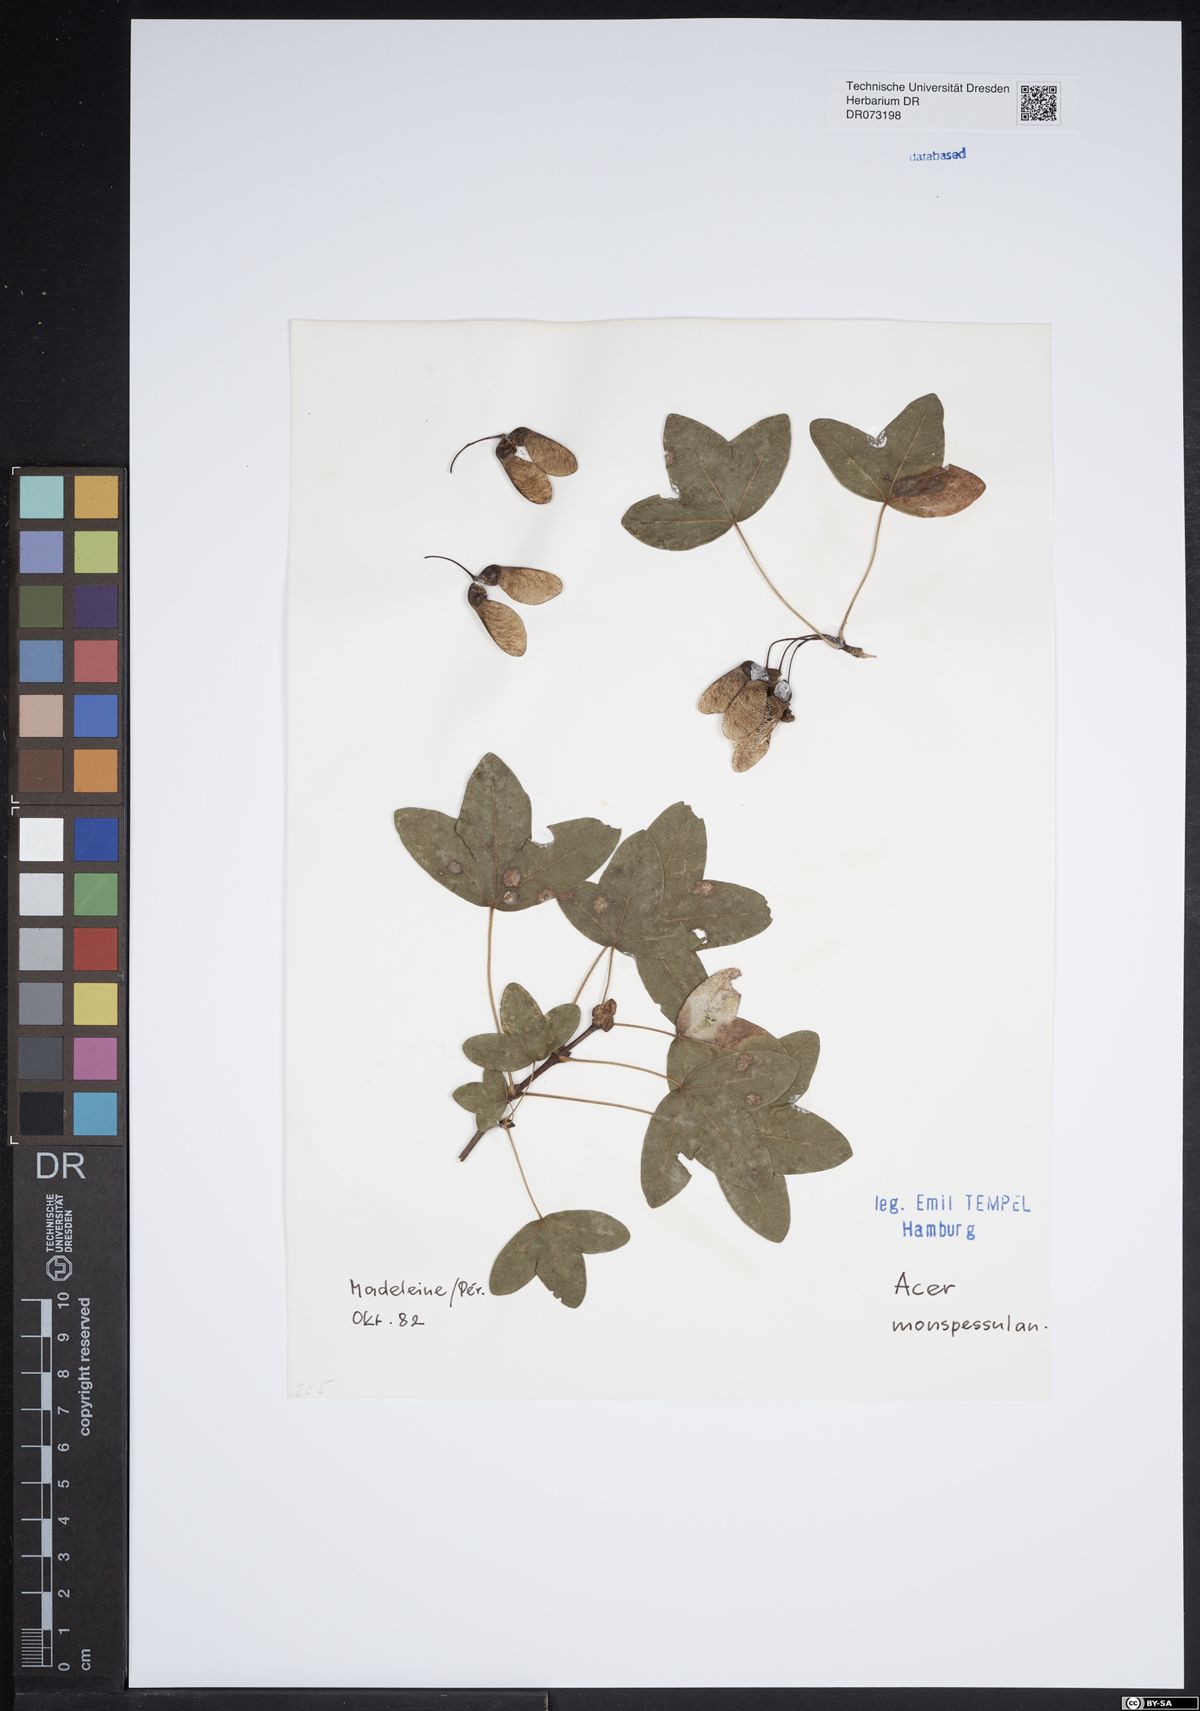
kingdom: Plantae
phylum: Tracheophyta
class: Magnoliopsida
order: Sapindales
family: Sapindaceae
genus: Acer
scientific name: Acer monspessulanum
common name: Montpellier maple
